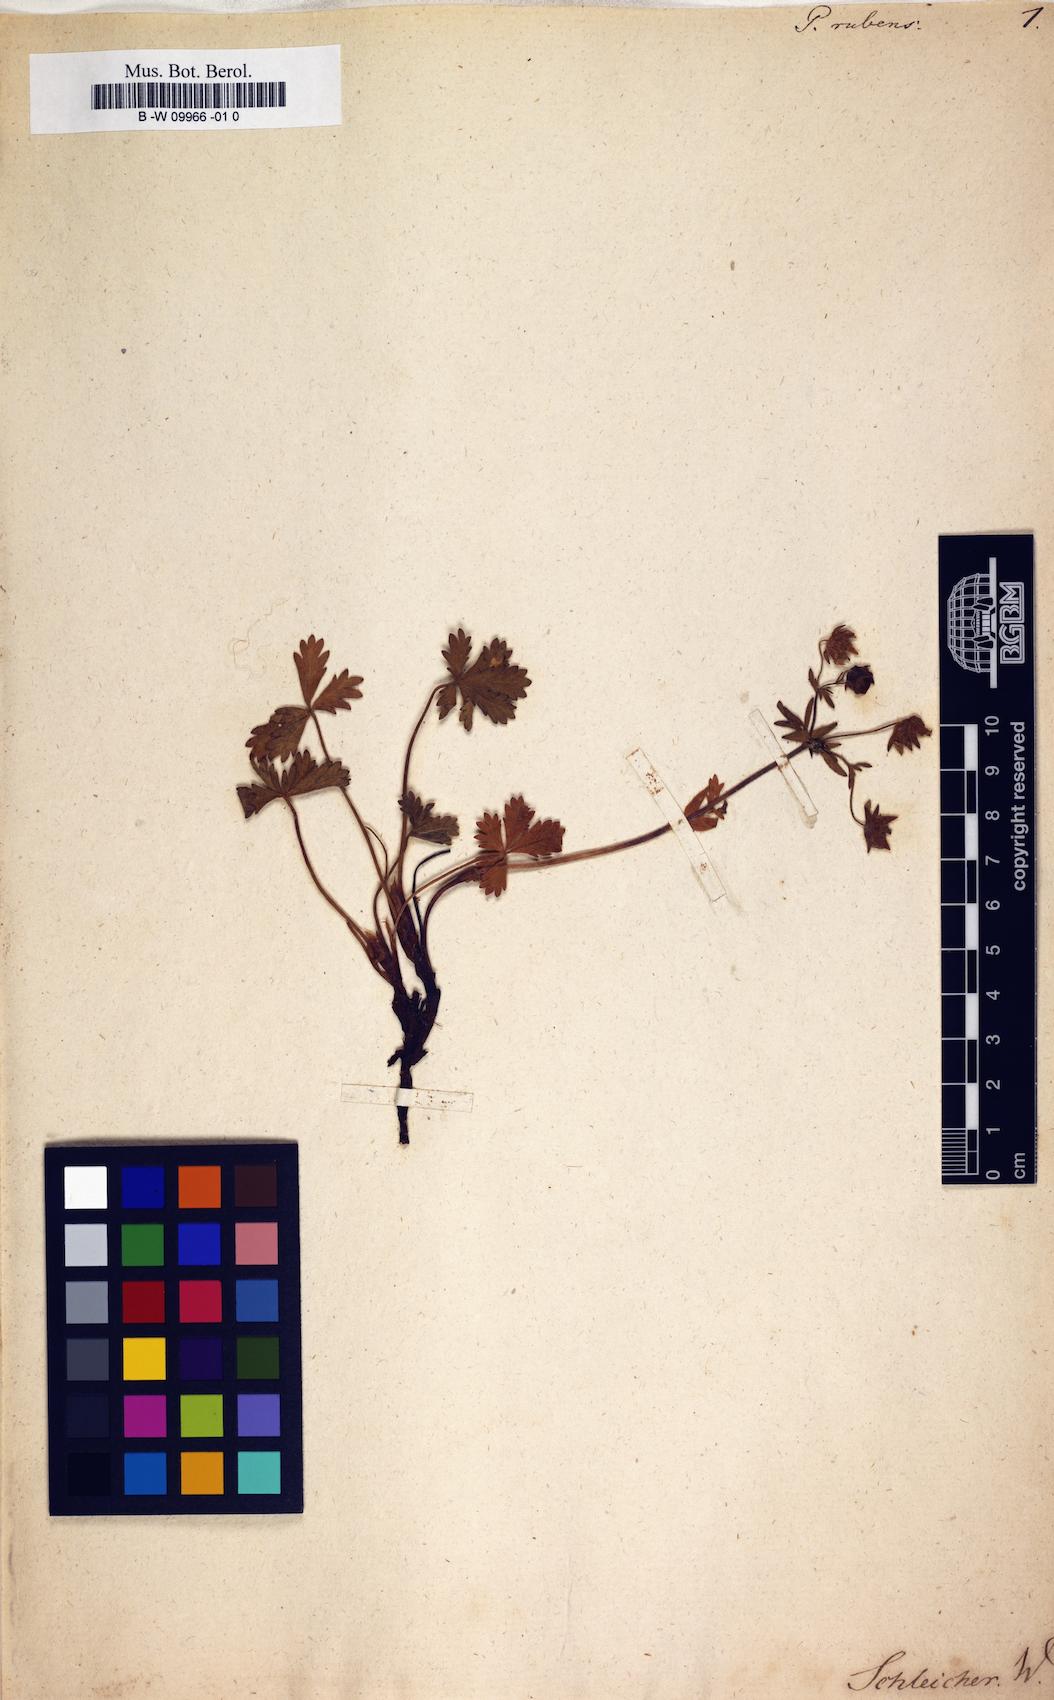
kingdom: Plantae
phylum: Tracheophyta
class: Magnoliopsida
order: Rosales
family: Rosaceae
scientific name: Rosaceae
